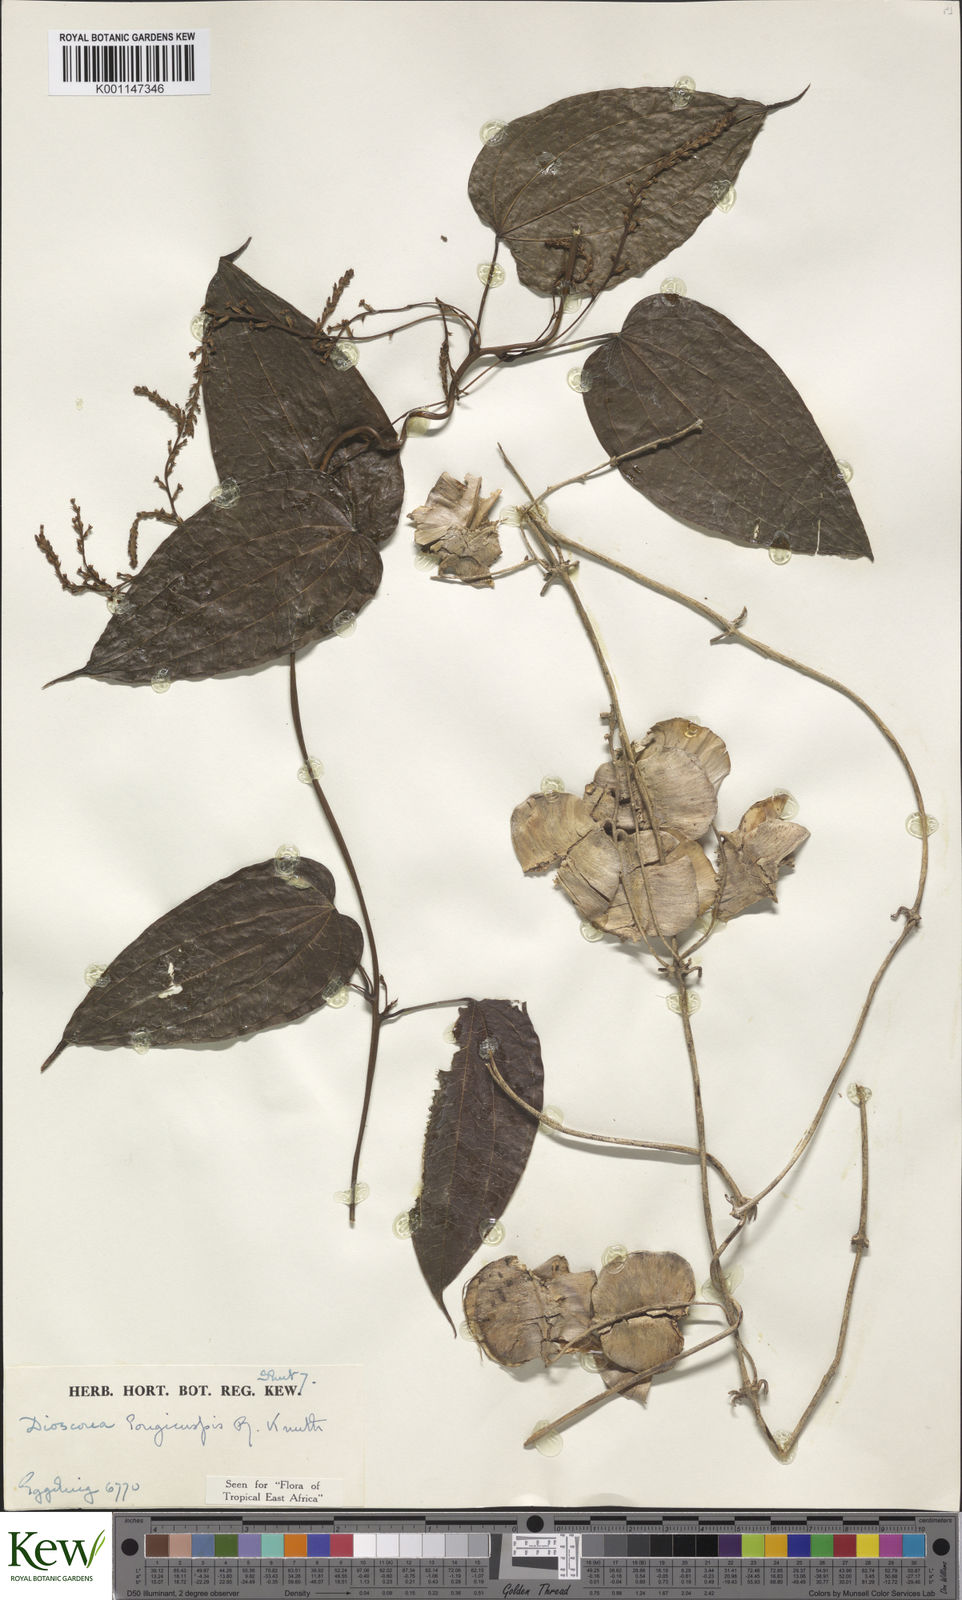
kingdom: Plantae
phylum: Tracheophyta
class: Liliopsida
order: Dioscoreales
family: Dioscoreaceae
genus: Dioscorea
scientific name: Dioscorea longicuspis
